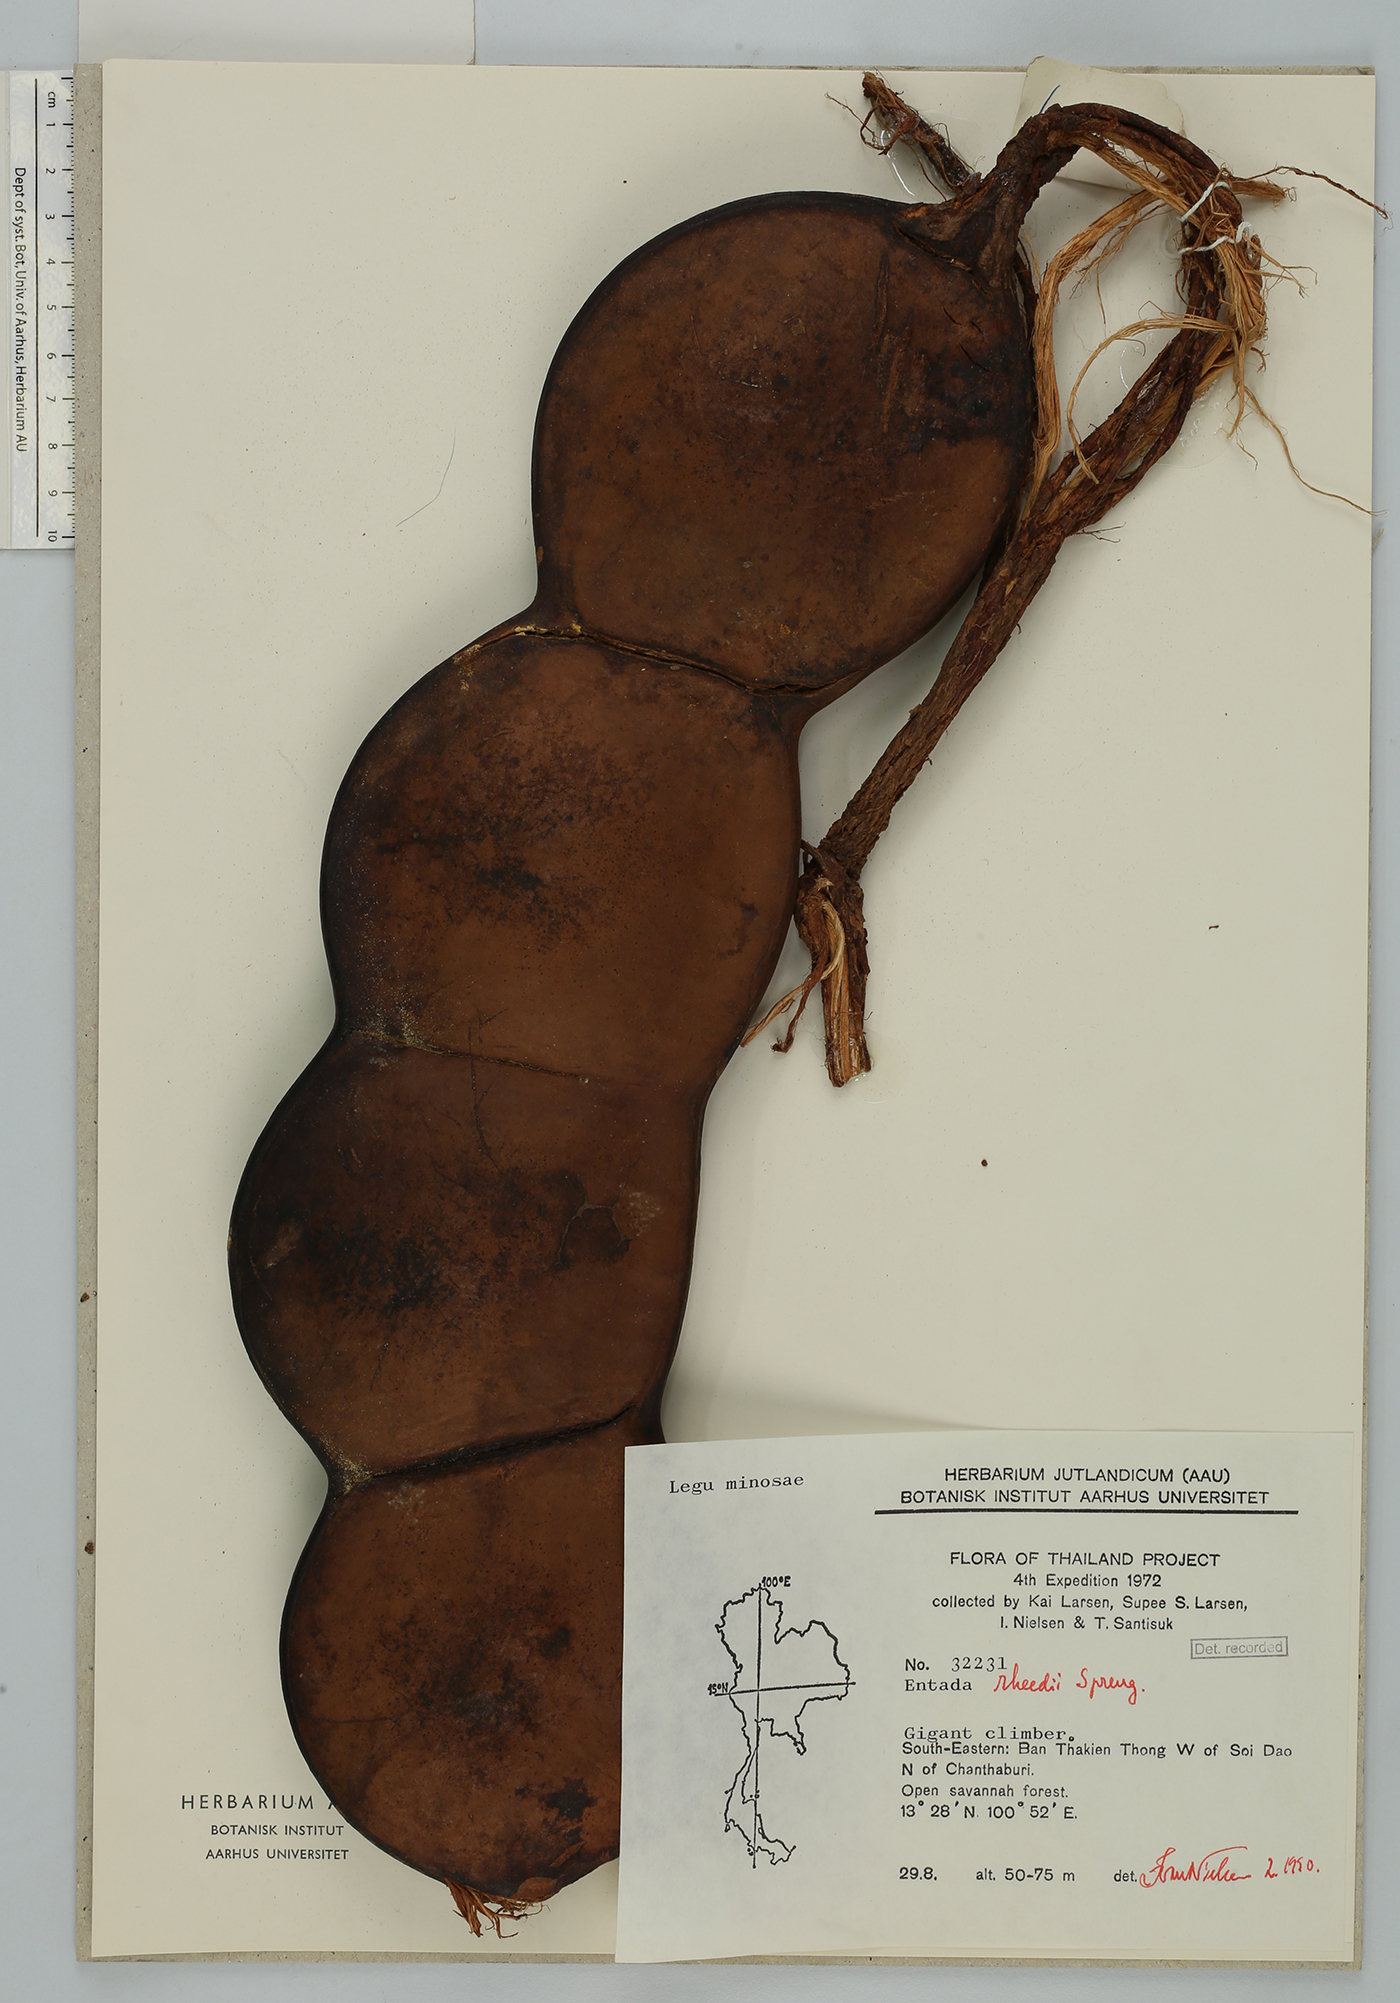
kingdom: Plantae
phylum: Tracheophyta
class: Magnoliopsida
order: Fabales
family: Fabaceae
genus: Entada
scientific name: Entada rheedei
